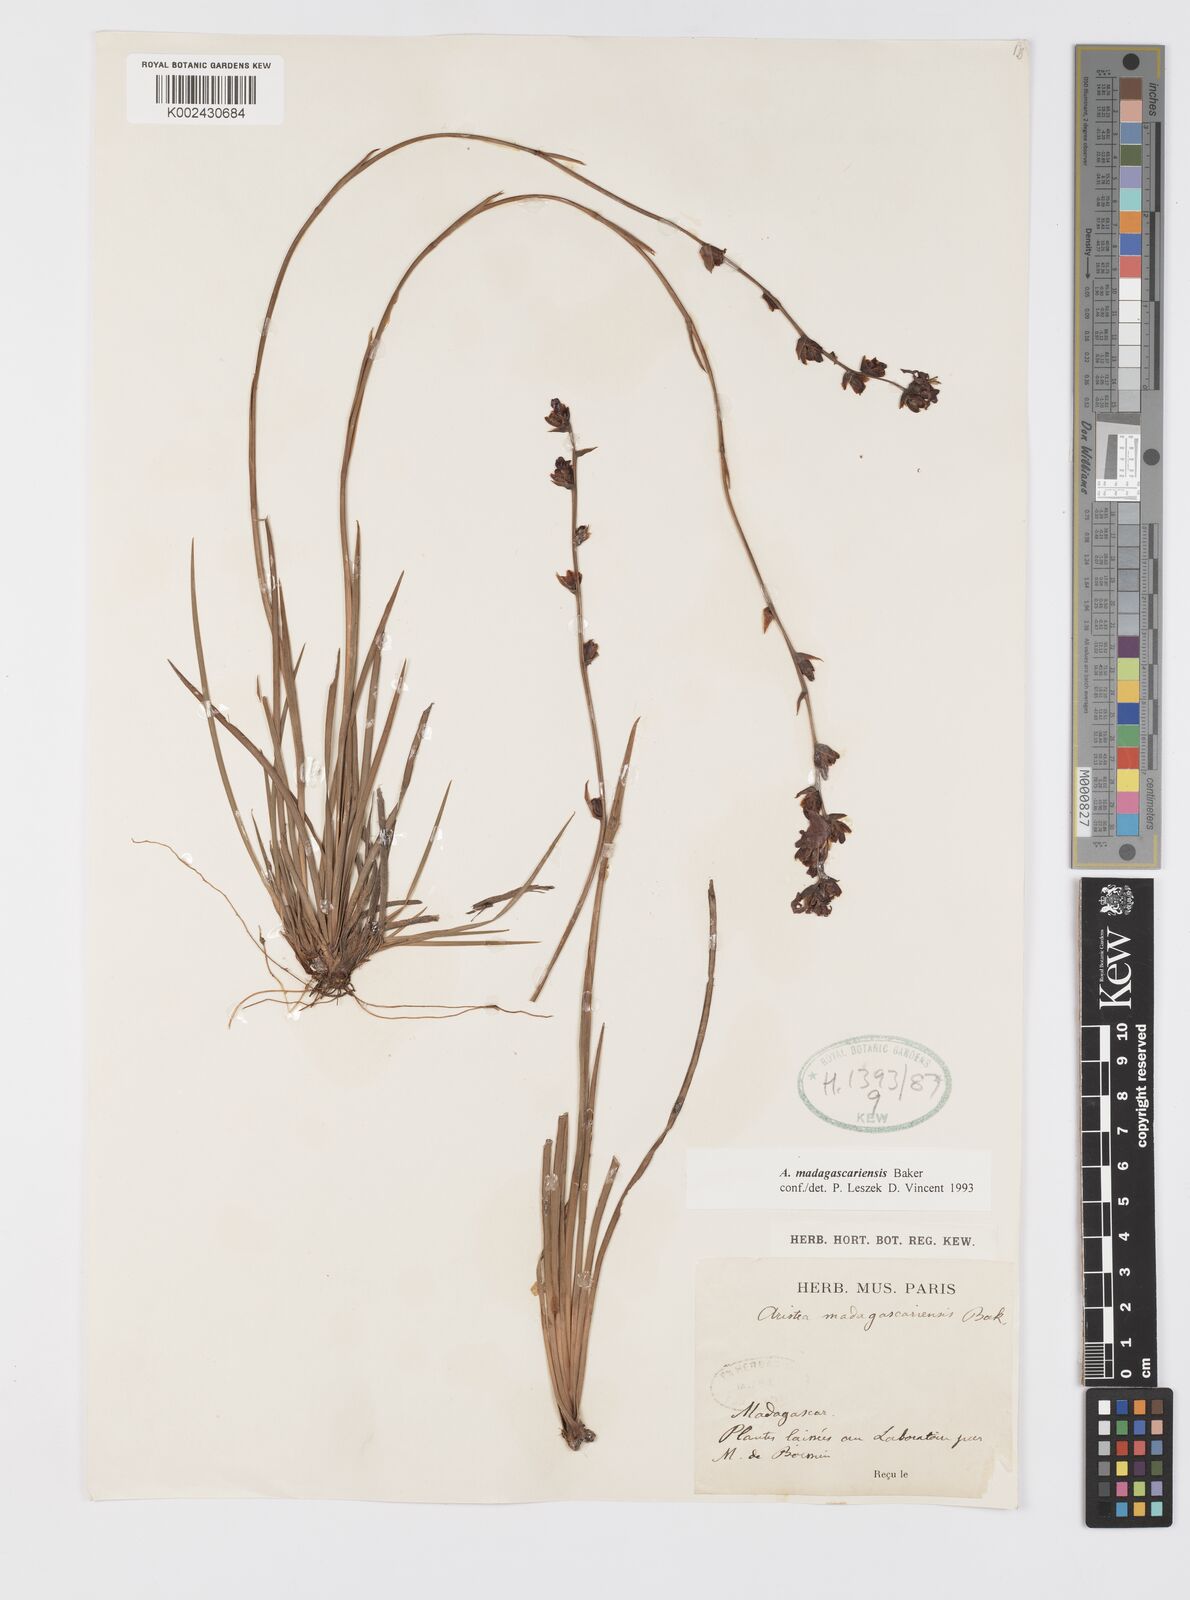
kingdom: Plantae
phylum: Tracheophyta
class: Liliopsida
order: Asparagales
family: Iridaceae
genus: Aristea
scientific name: Aristea madagascariensis
